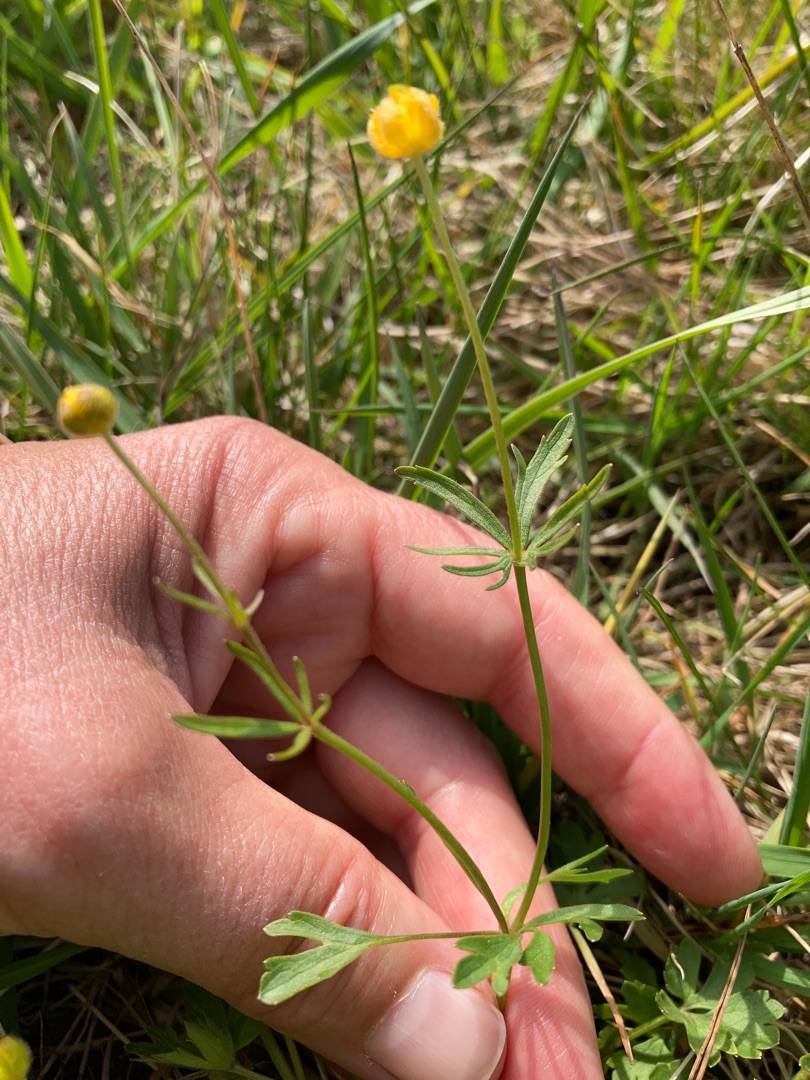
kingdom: Plantae
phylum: Tracheophyta
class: Magnoliopsida
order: Ranunculales
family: Ranunculaceae
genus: Ranunculus
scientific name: Ranunculus auricomus
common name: Nyrebladet ranunkel
